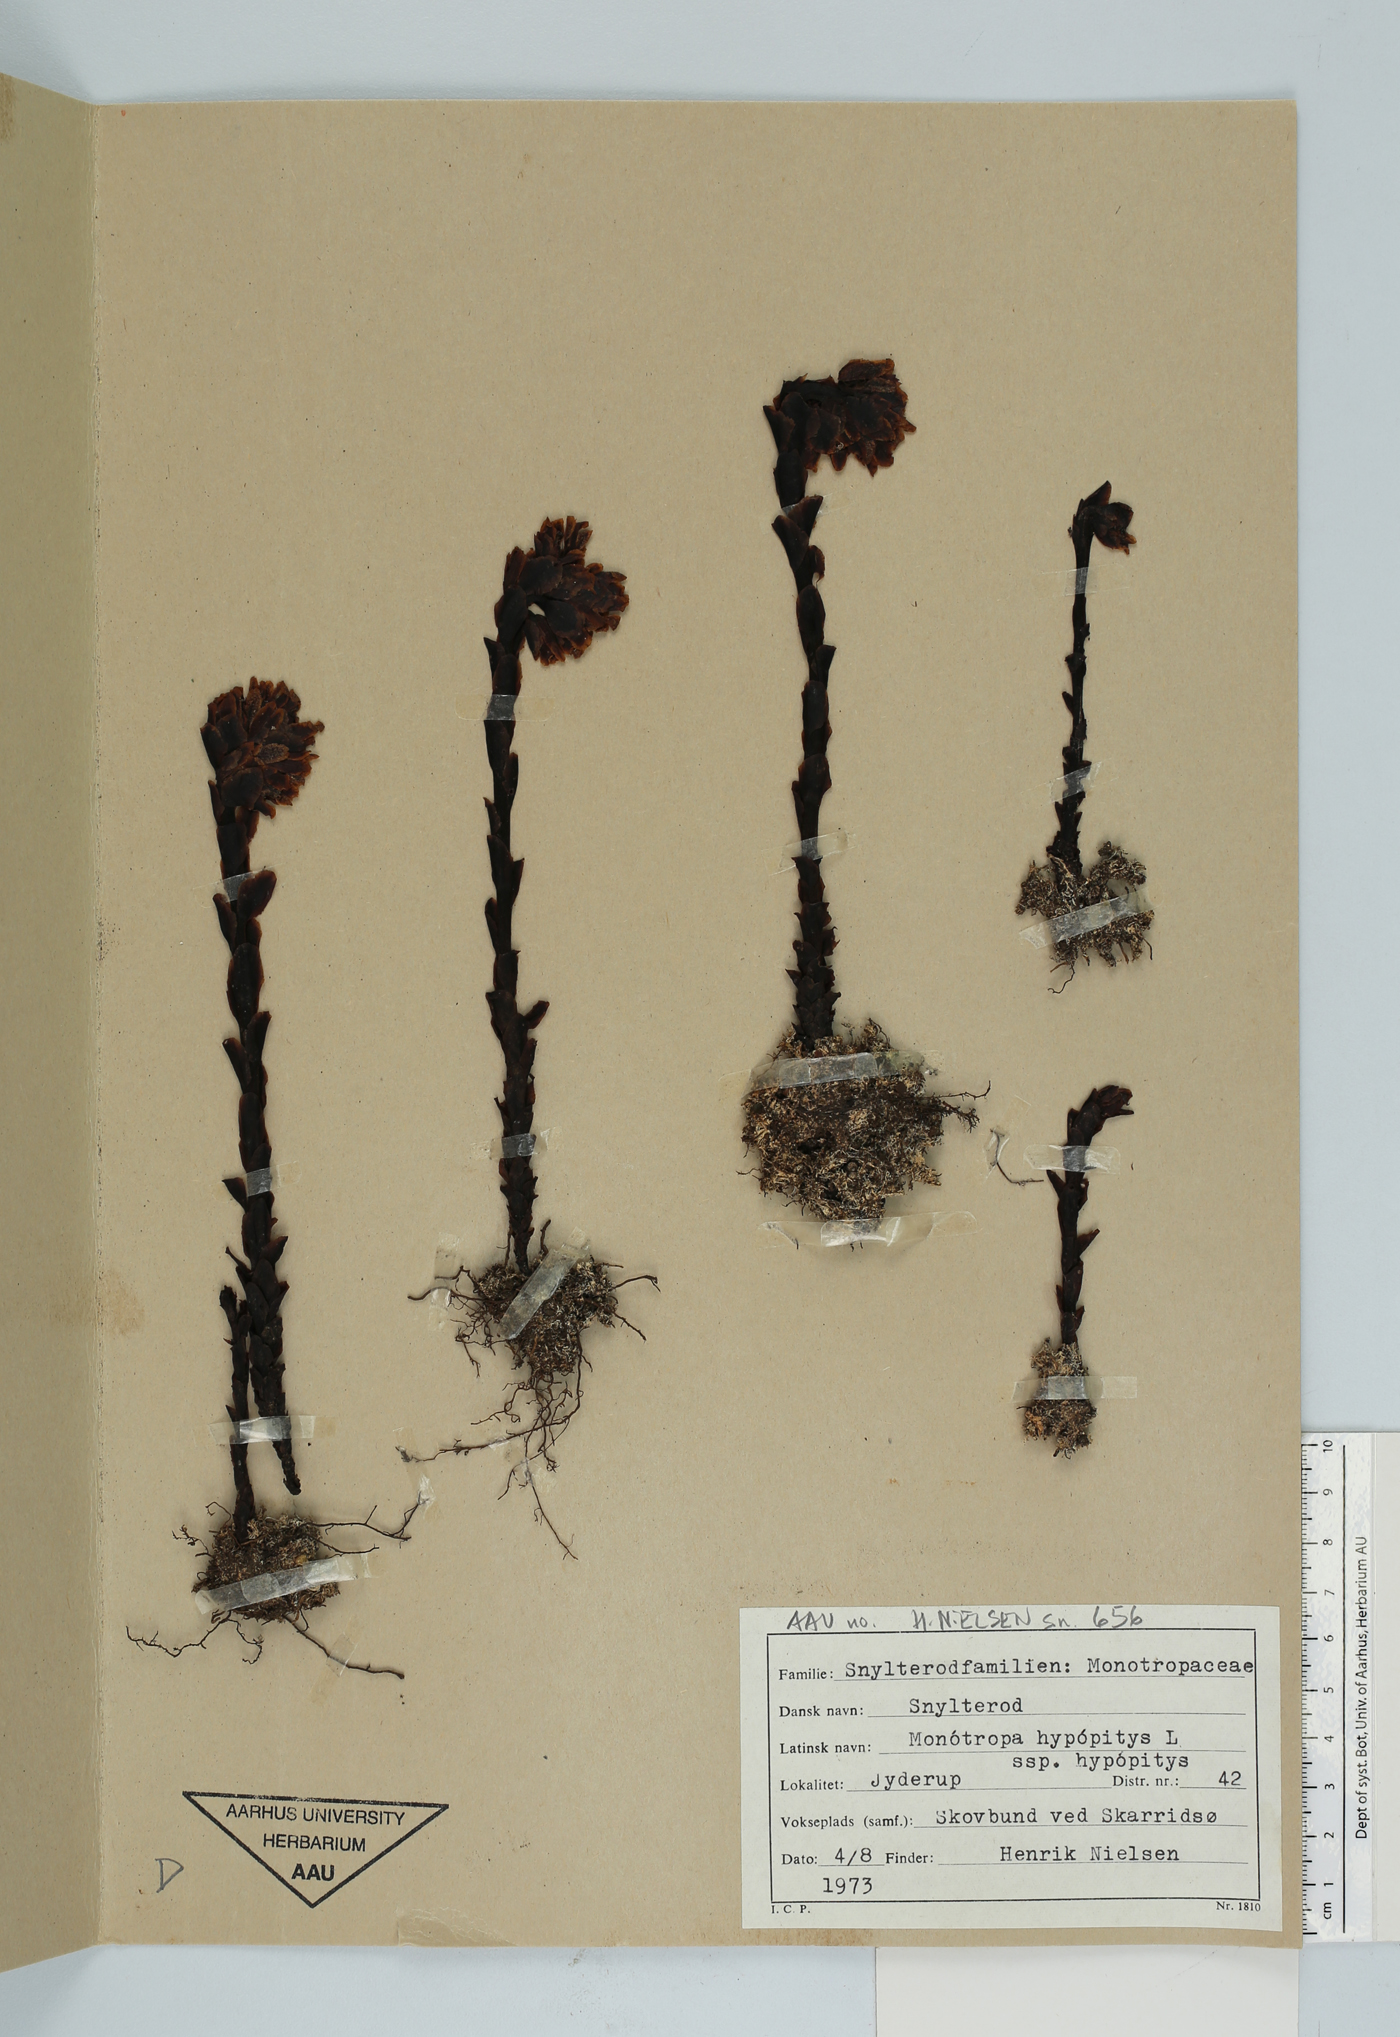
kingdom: Plantae
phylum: Tracheophyta
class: Magnoliopsida
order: Ericales
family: Ericaceae
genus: Hypopitys
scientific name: Hypopitys monotropa
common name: Yellow bird's-nest
